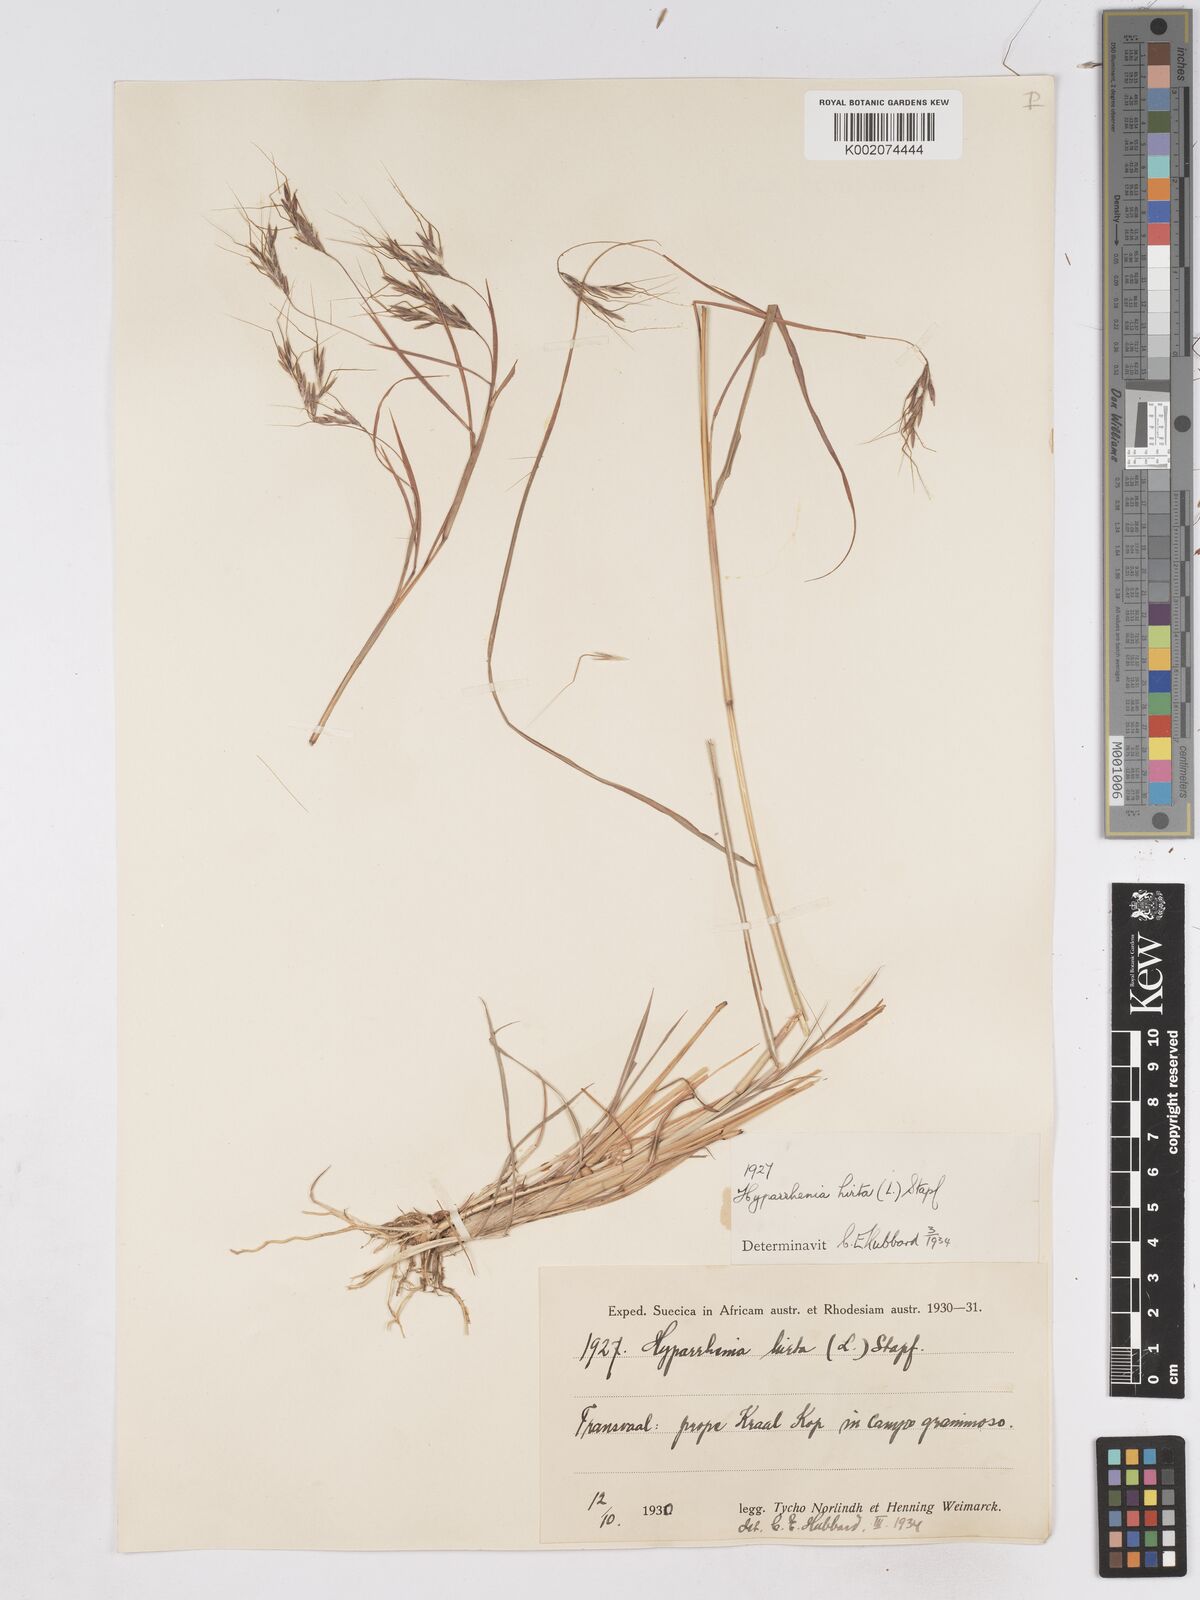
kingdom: Plantae
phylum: Tracheophyta
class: Liliopsida
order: Poales
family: Poaceae
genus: Hyparrhenia
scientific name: Hyparrhenia hirta
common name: Thatching grass
